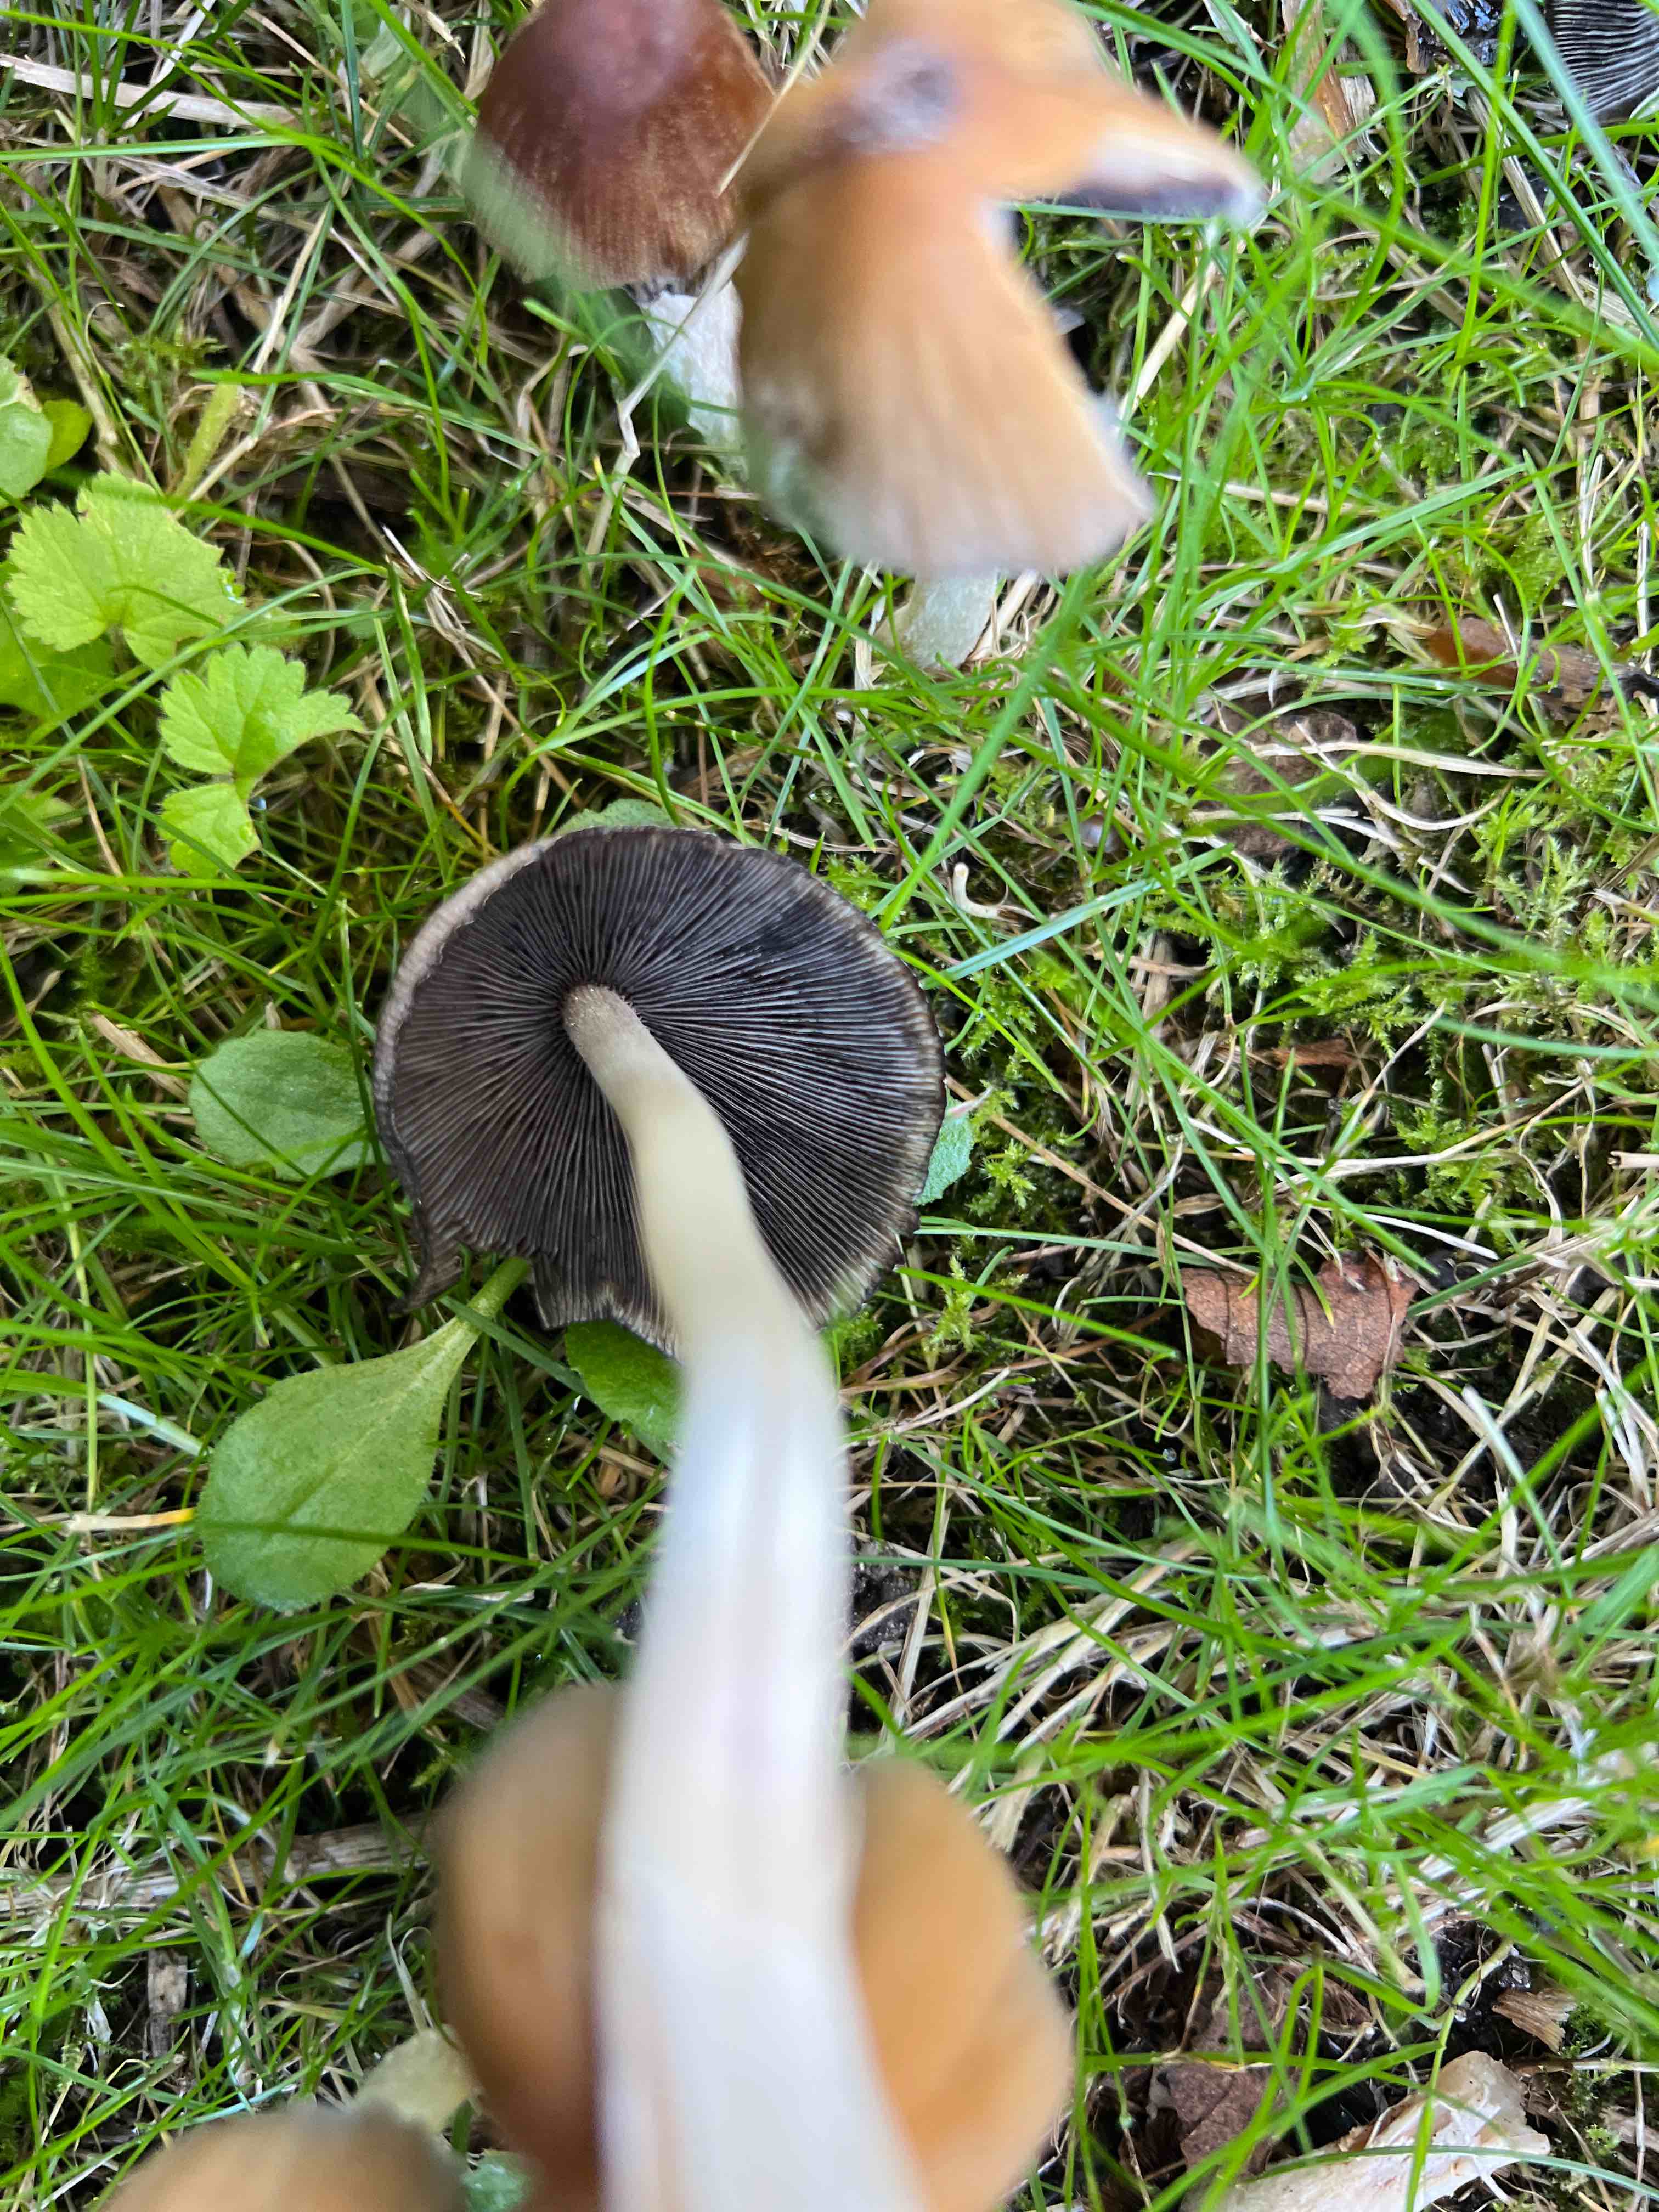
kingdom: Fungi
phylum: Basidiomycota
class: Agaricomycetes
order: Agaricales
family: Psathyrellaceae
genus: Coprinellus
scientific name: Coprinellus micaceus
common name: glimmer-blækhat
